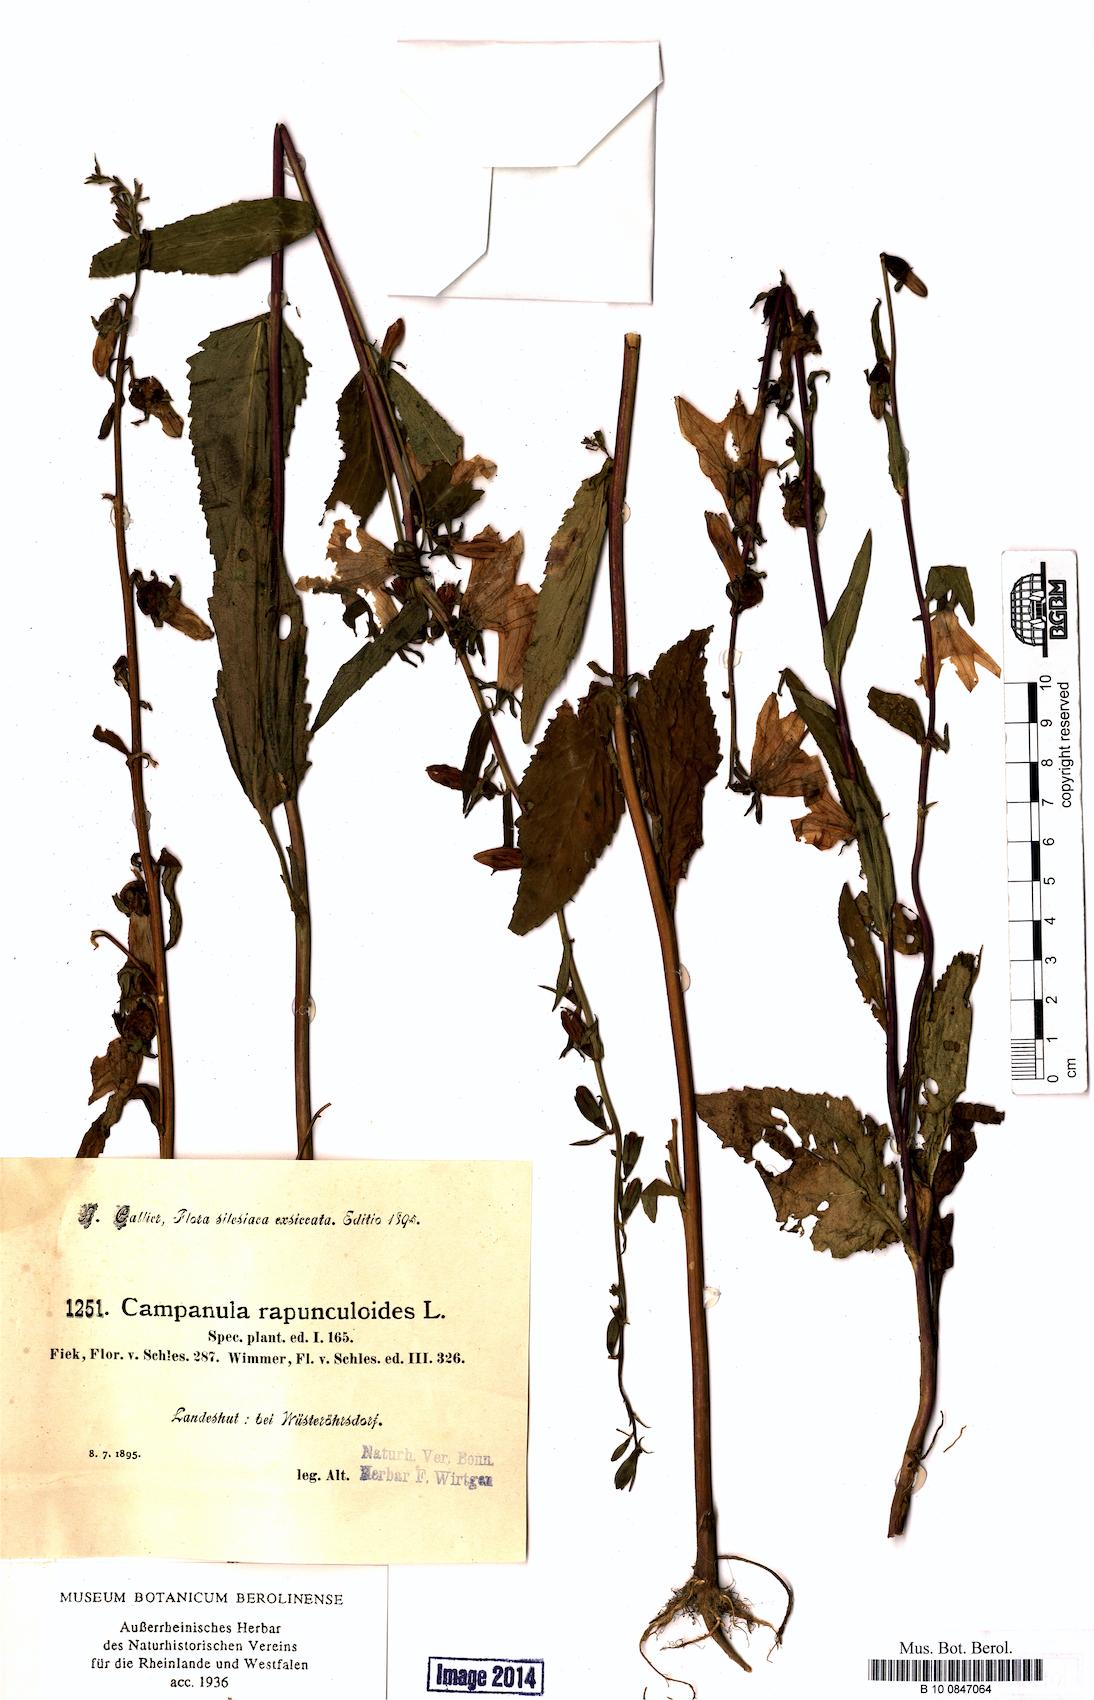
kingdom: Plantae
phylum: Tracheophyta
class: Magnoliopsida
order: Asterales
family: Campanulaceae
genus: Campanula
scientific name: Campanula rapunculoides
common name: Creeping bellflower
